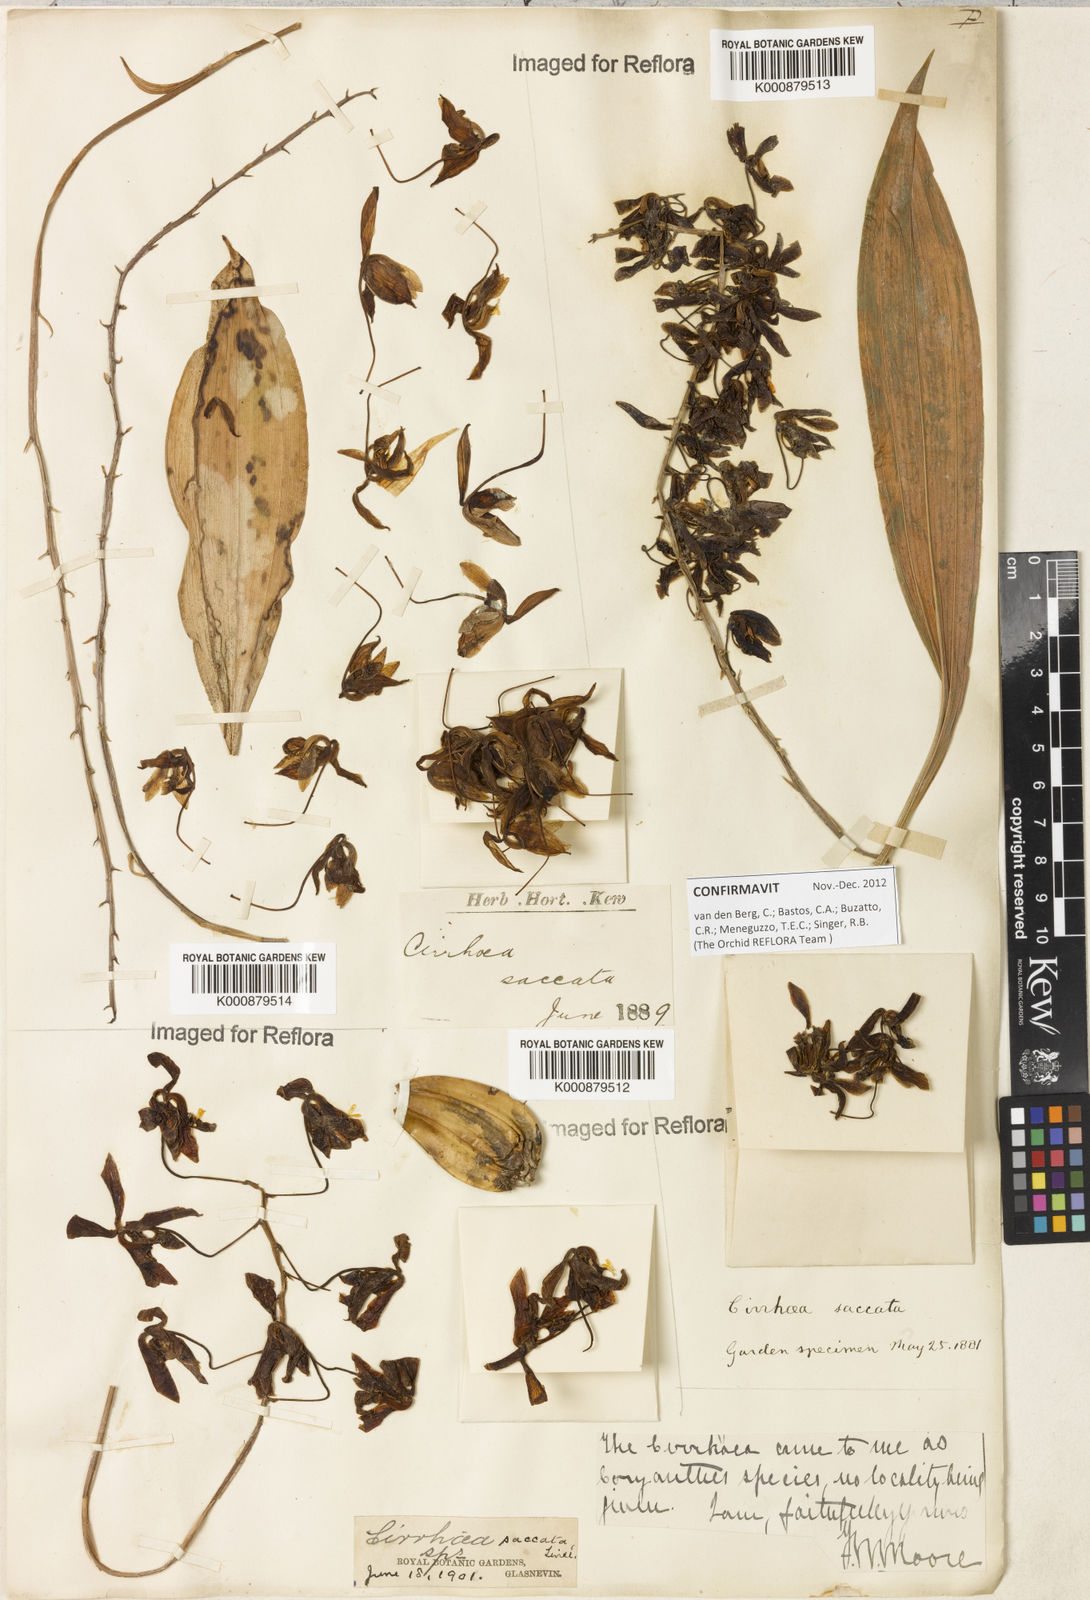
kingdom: Plantae
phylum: Tracheophyta
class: Liliopsida
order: Asparagales
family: Orchidaceae
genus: Cirrhaea
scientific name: Cirrhaea fuscolutea
